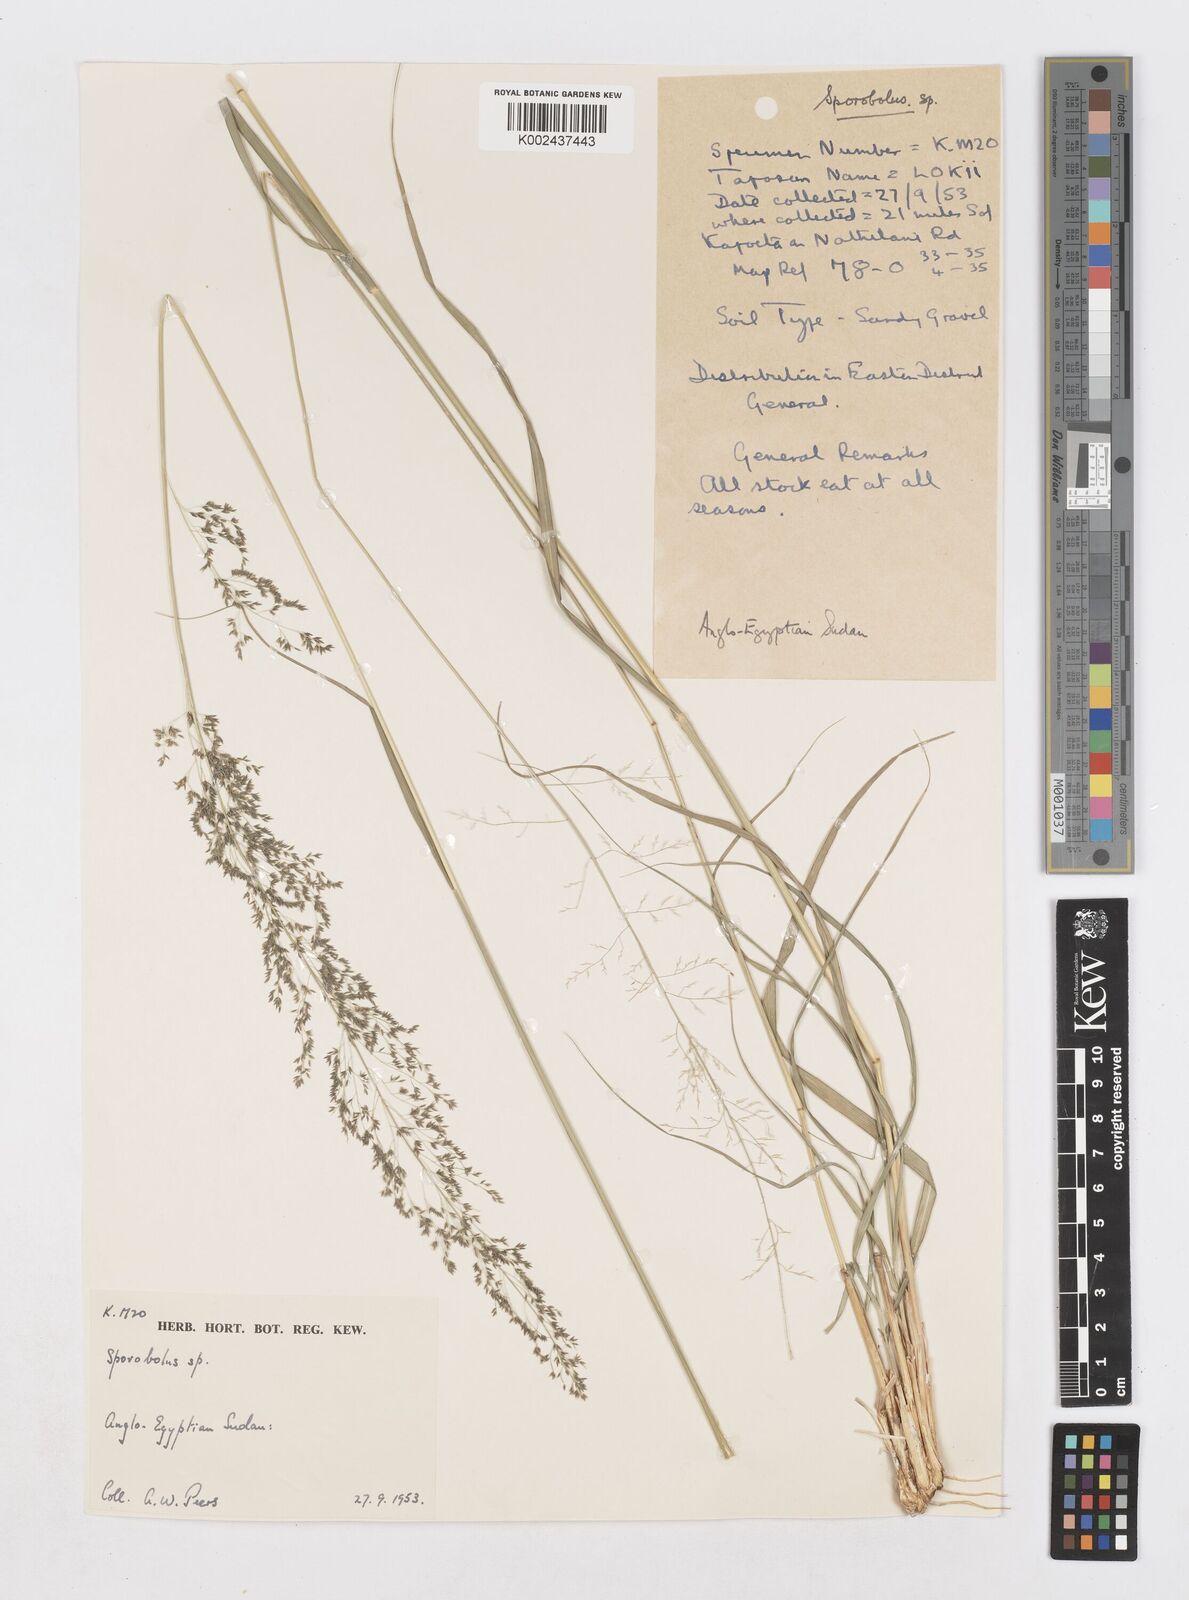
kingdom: Plantae
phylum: Tracheophyta
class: Liliopsida
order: Poales
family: Poaceae
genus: Sporobolus
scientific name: Sporobolus fimbriatus
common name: Fringed dropseed
